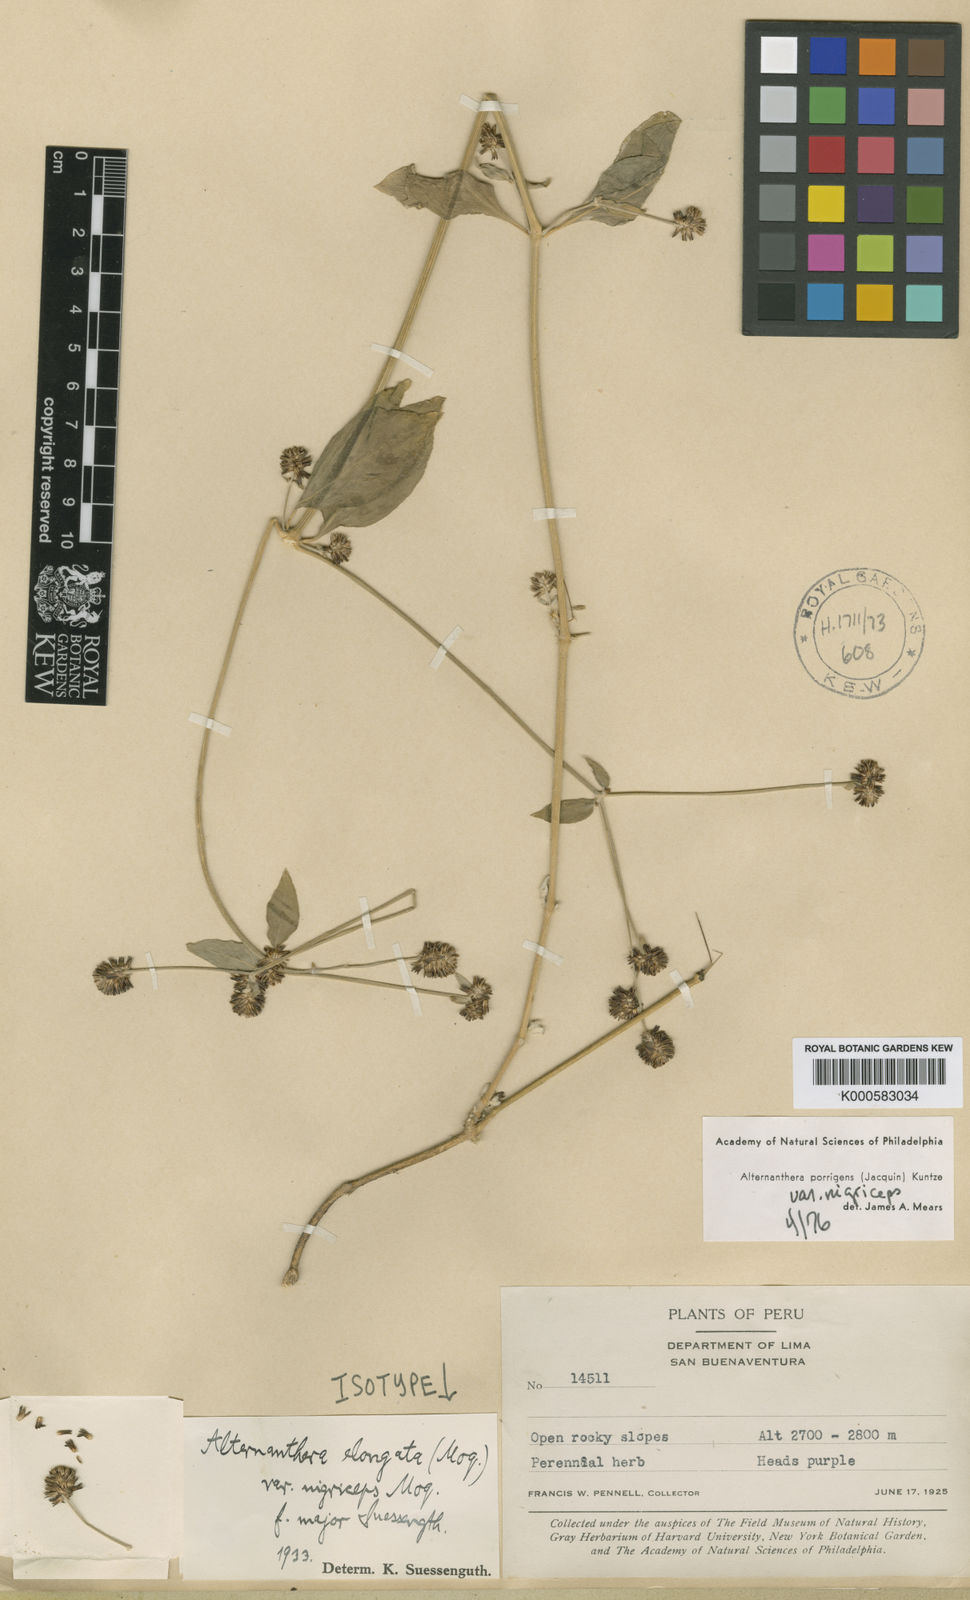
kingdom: Plantae
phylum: Tracheophyta
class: Magnoliopsida
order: Caryophyllales
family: Amaranthaceae
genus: Alternanthera
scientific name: Alternanthera porrigens
